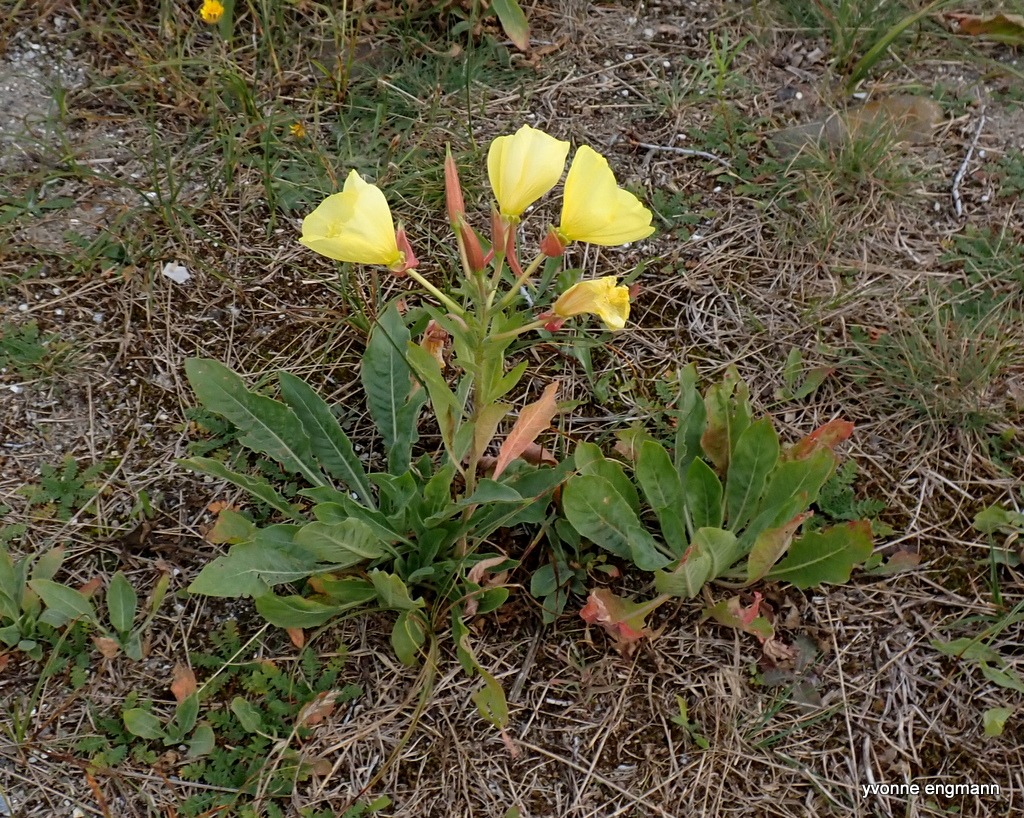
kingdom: Plantae
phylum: Tracheophyta
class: Magnoliopsida
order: Myrtales
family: Onagraceae
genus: Oenothera
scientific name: Oenothera glazioviana
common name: Kæmpe-natlys
